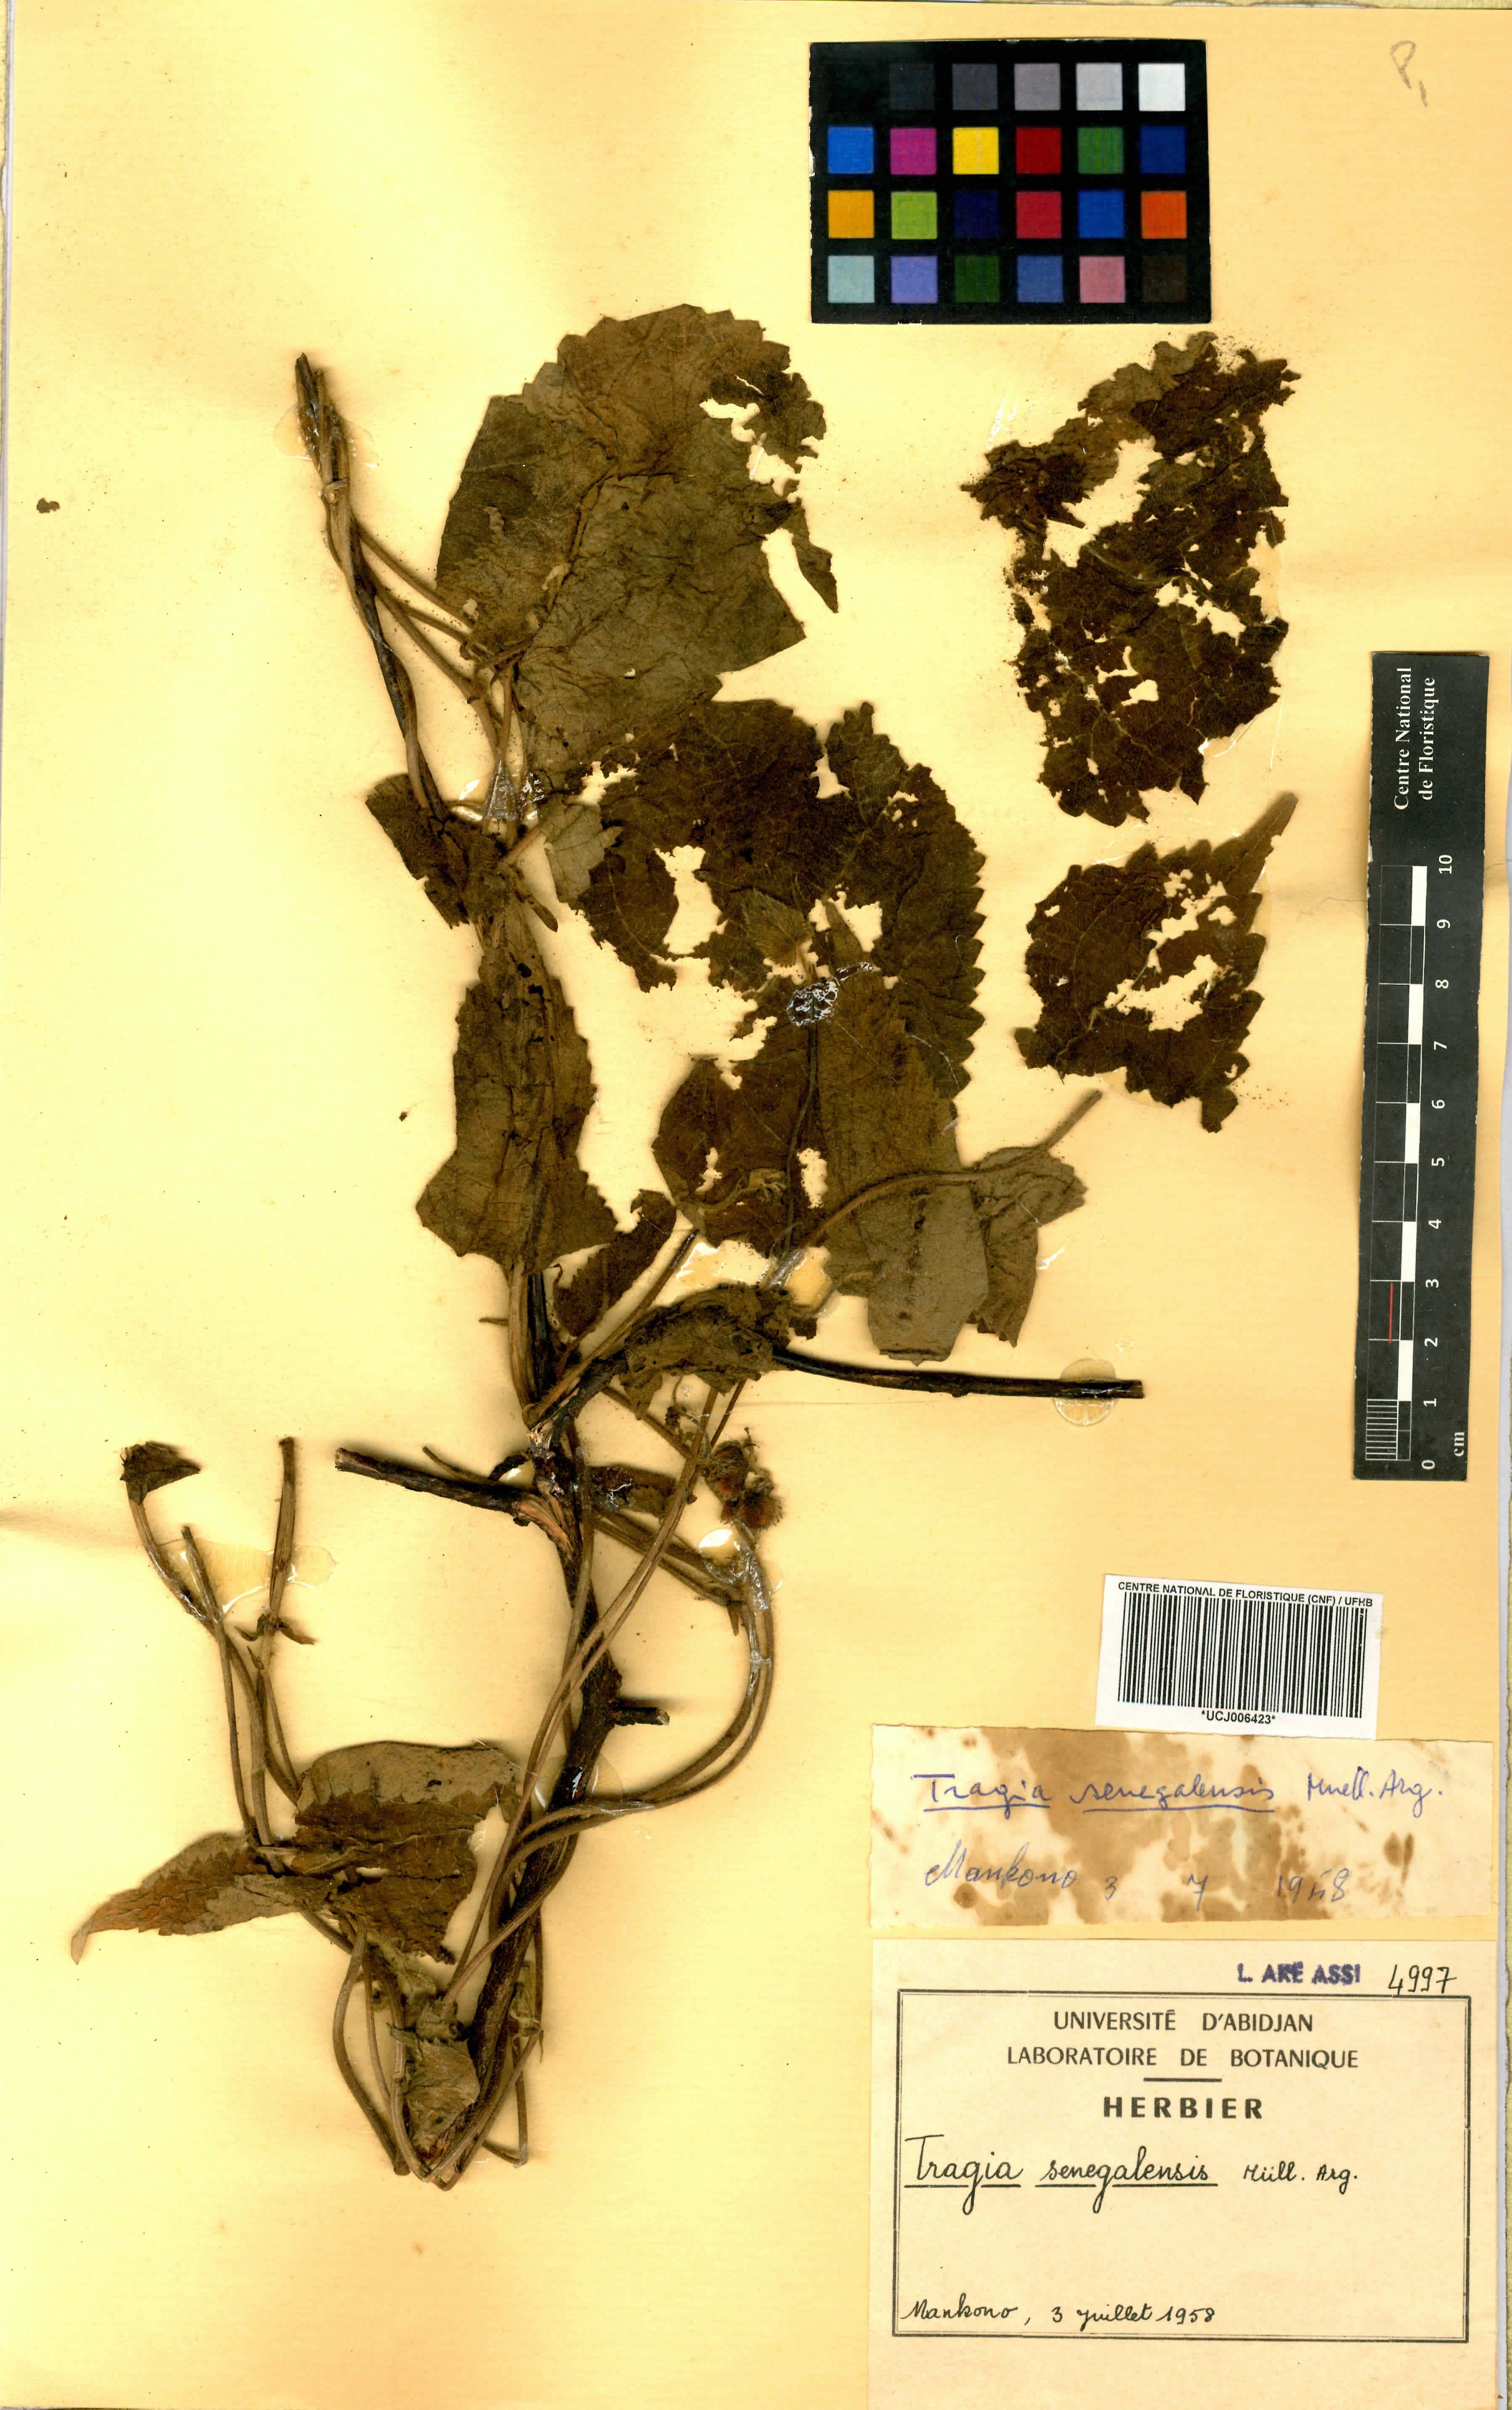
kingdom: Plantae
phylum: Tracheophyta
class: Magnoliopsida
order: Malpighiales
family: Euphorbiaceae
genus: Tragia
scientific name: Tragia senegalensis
